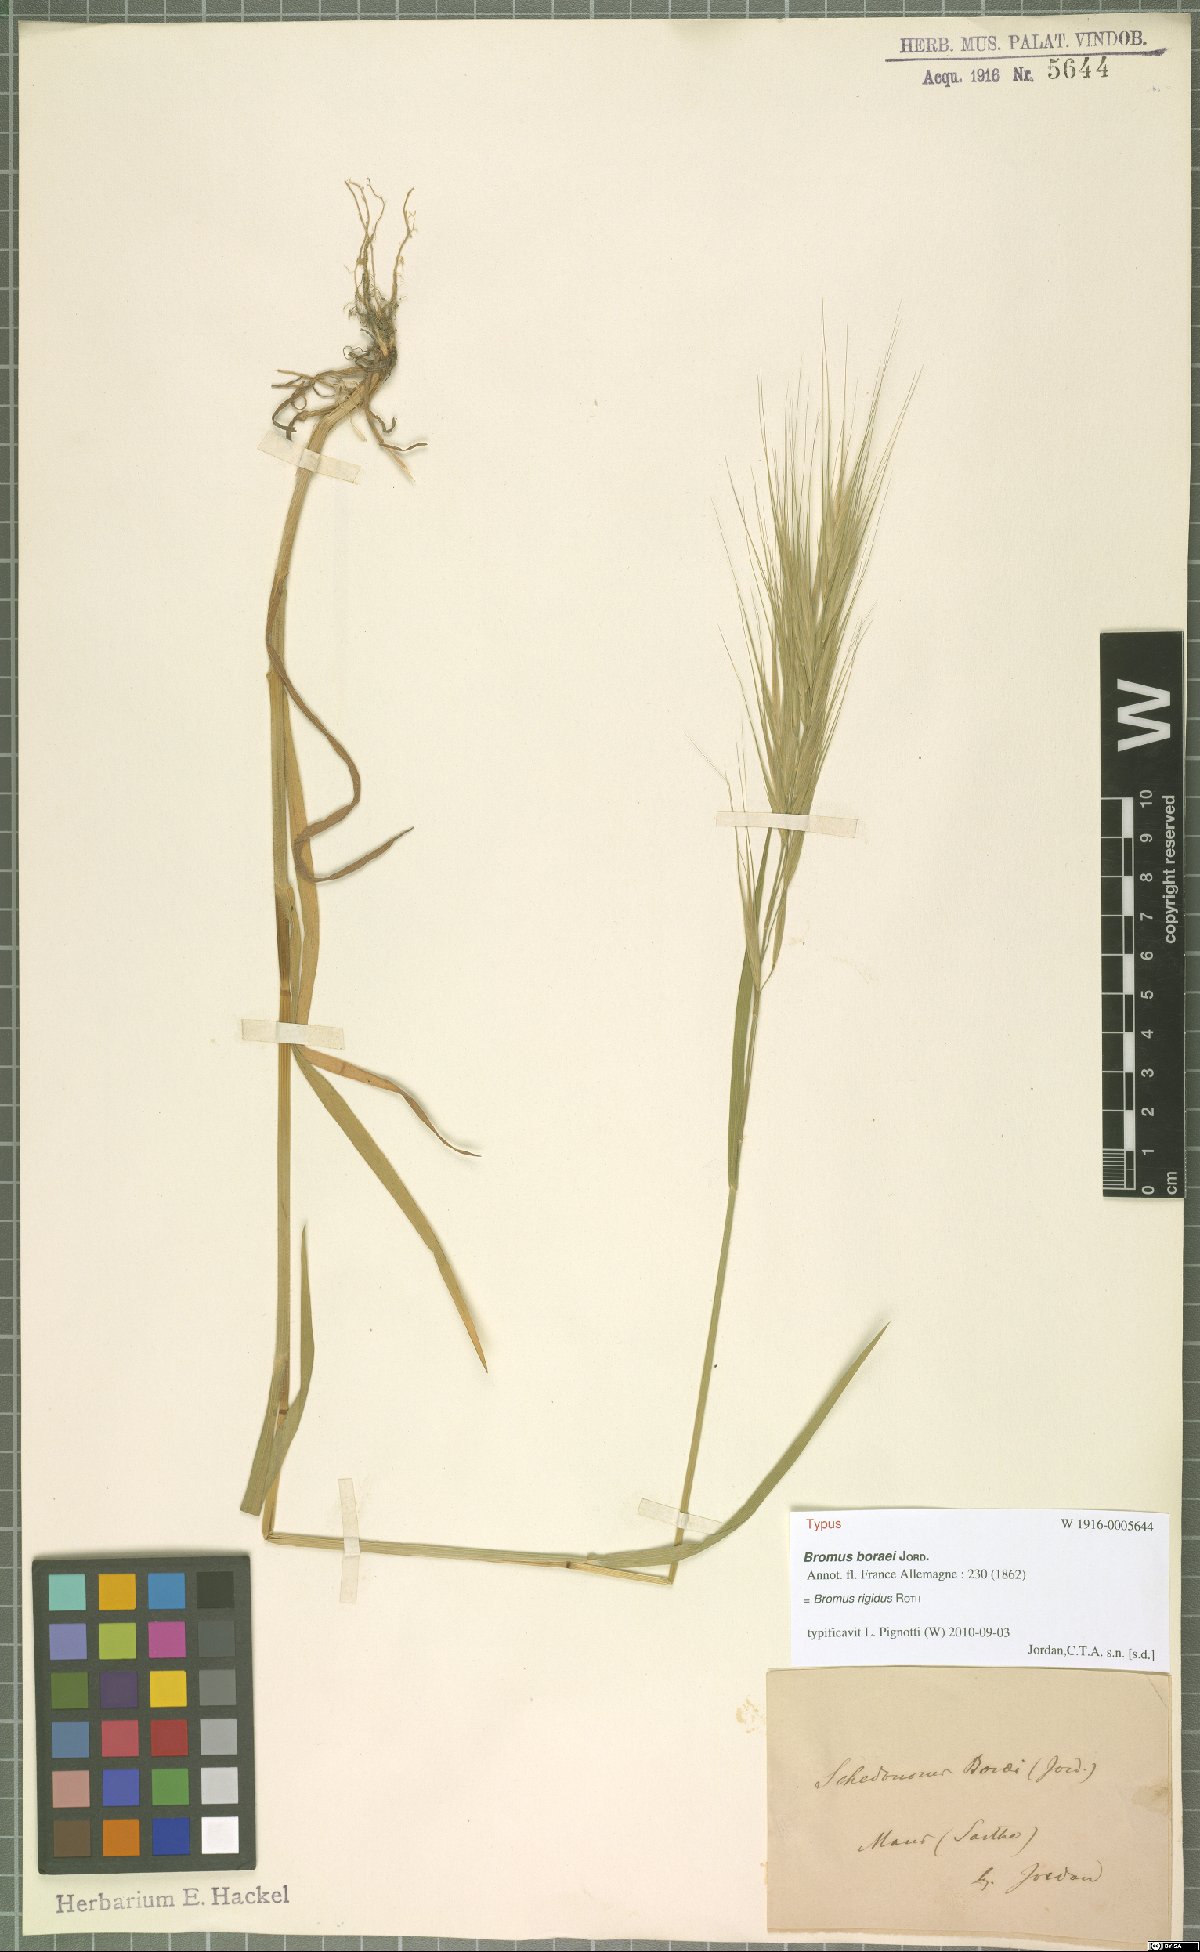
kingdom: Plantae
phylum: Tracheophyta
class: Liliopsida
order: Poales
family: Poaceae
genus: Bromus
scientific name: Bromus rigidus
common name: Ripgut brome
